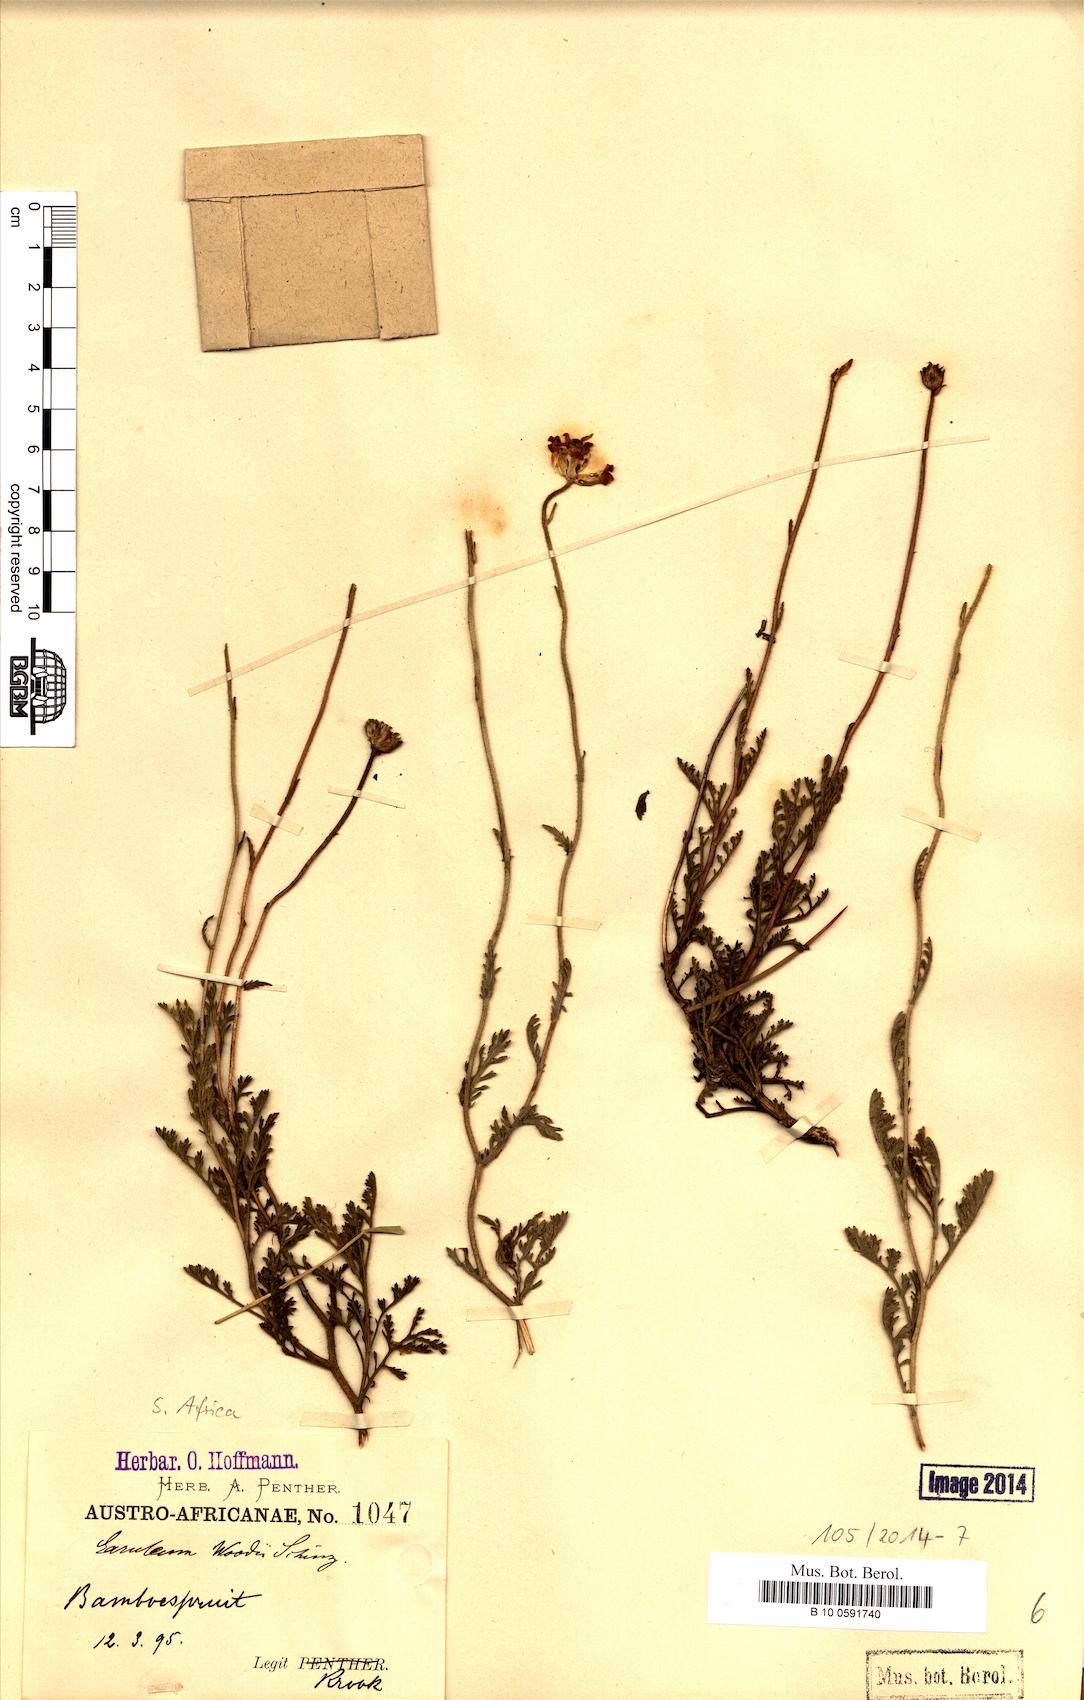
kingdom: Plantae
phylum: Tracheophyta
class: Magnoliopsida
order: Asterales
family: Asteraceae
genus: Garuleum
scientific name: Garuleum woodii
